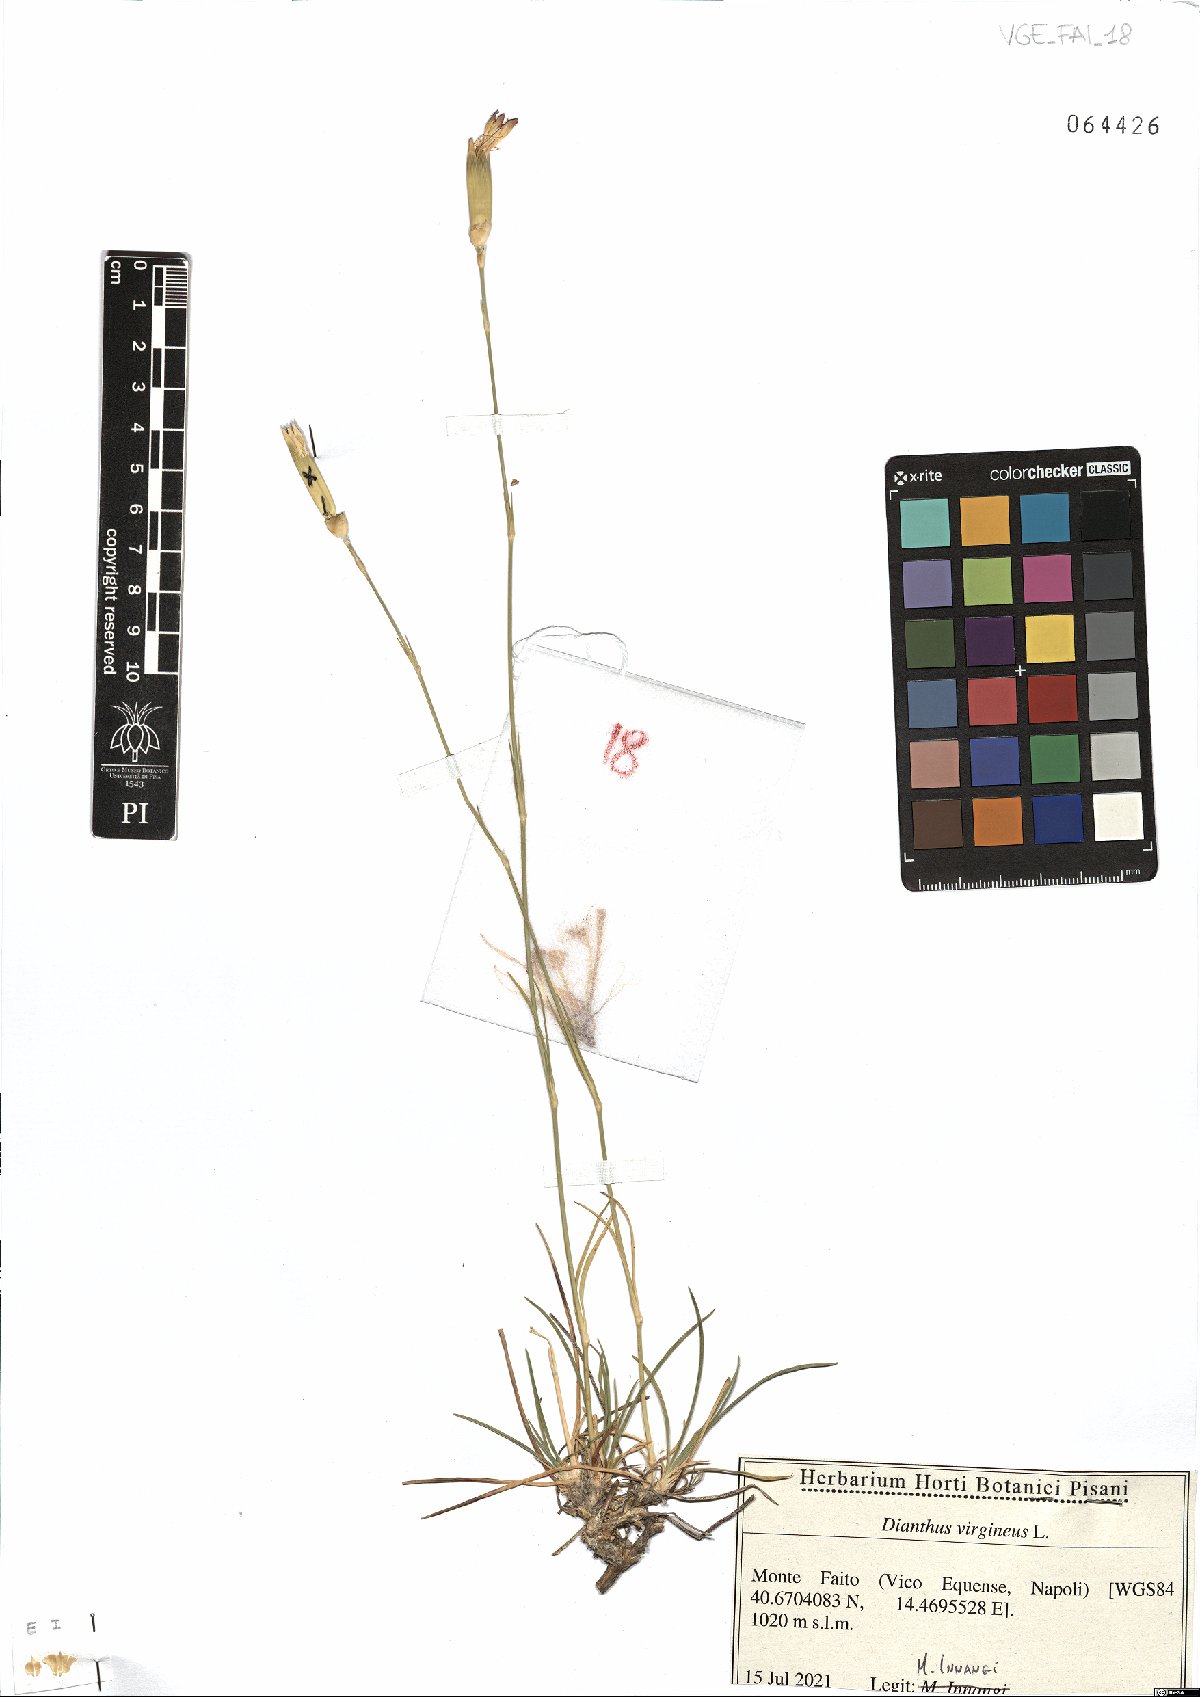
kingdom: Plantae
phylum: Tracheophyta
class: Magnoliopsida
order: Caryophyllales
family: Caryophyllaceae
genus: Dianthus
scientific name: Dianthus virgineus
